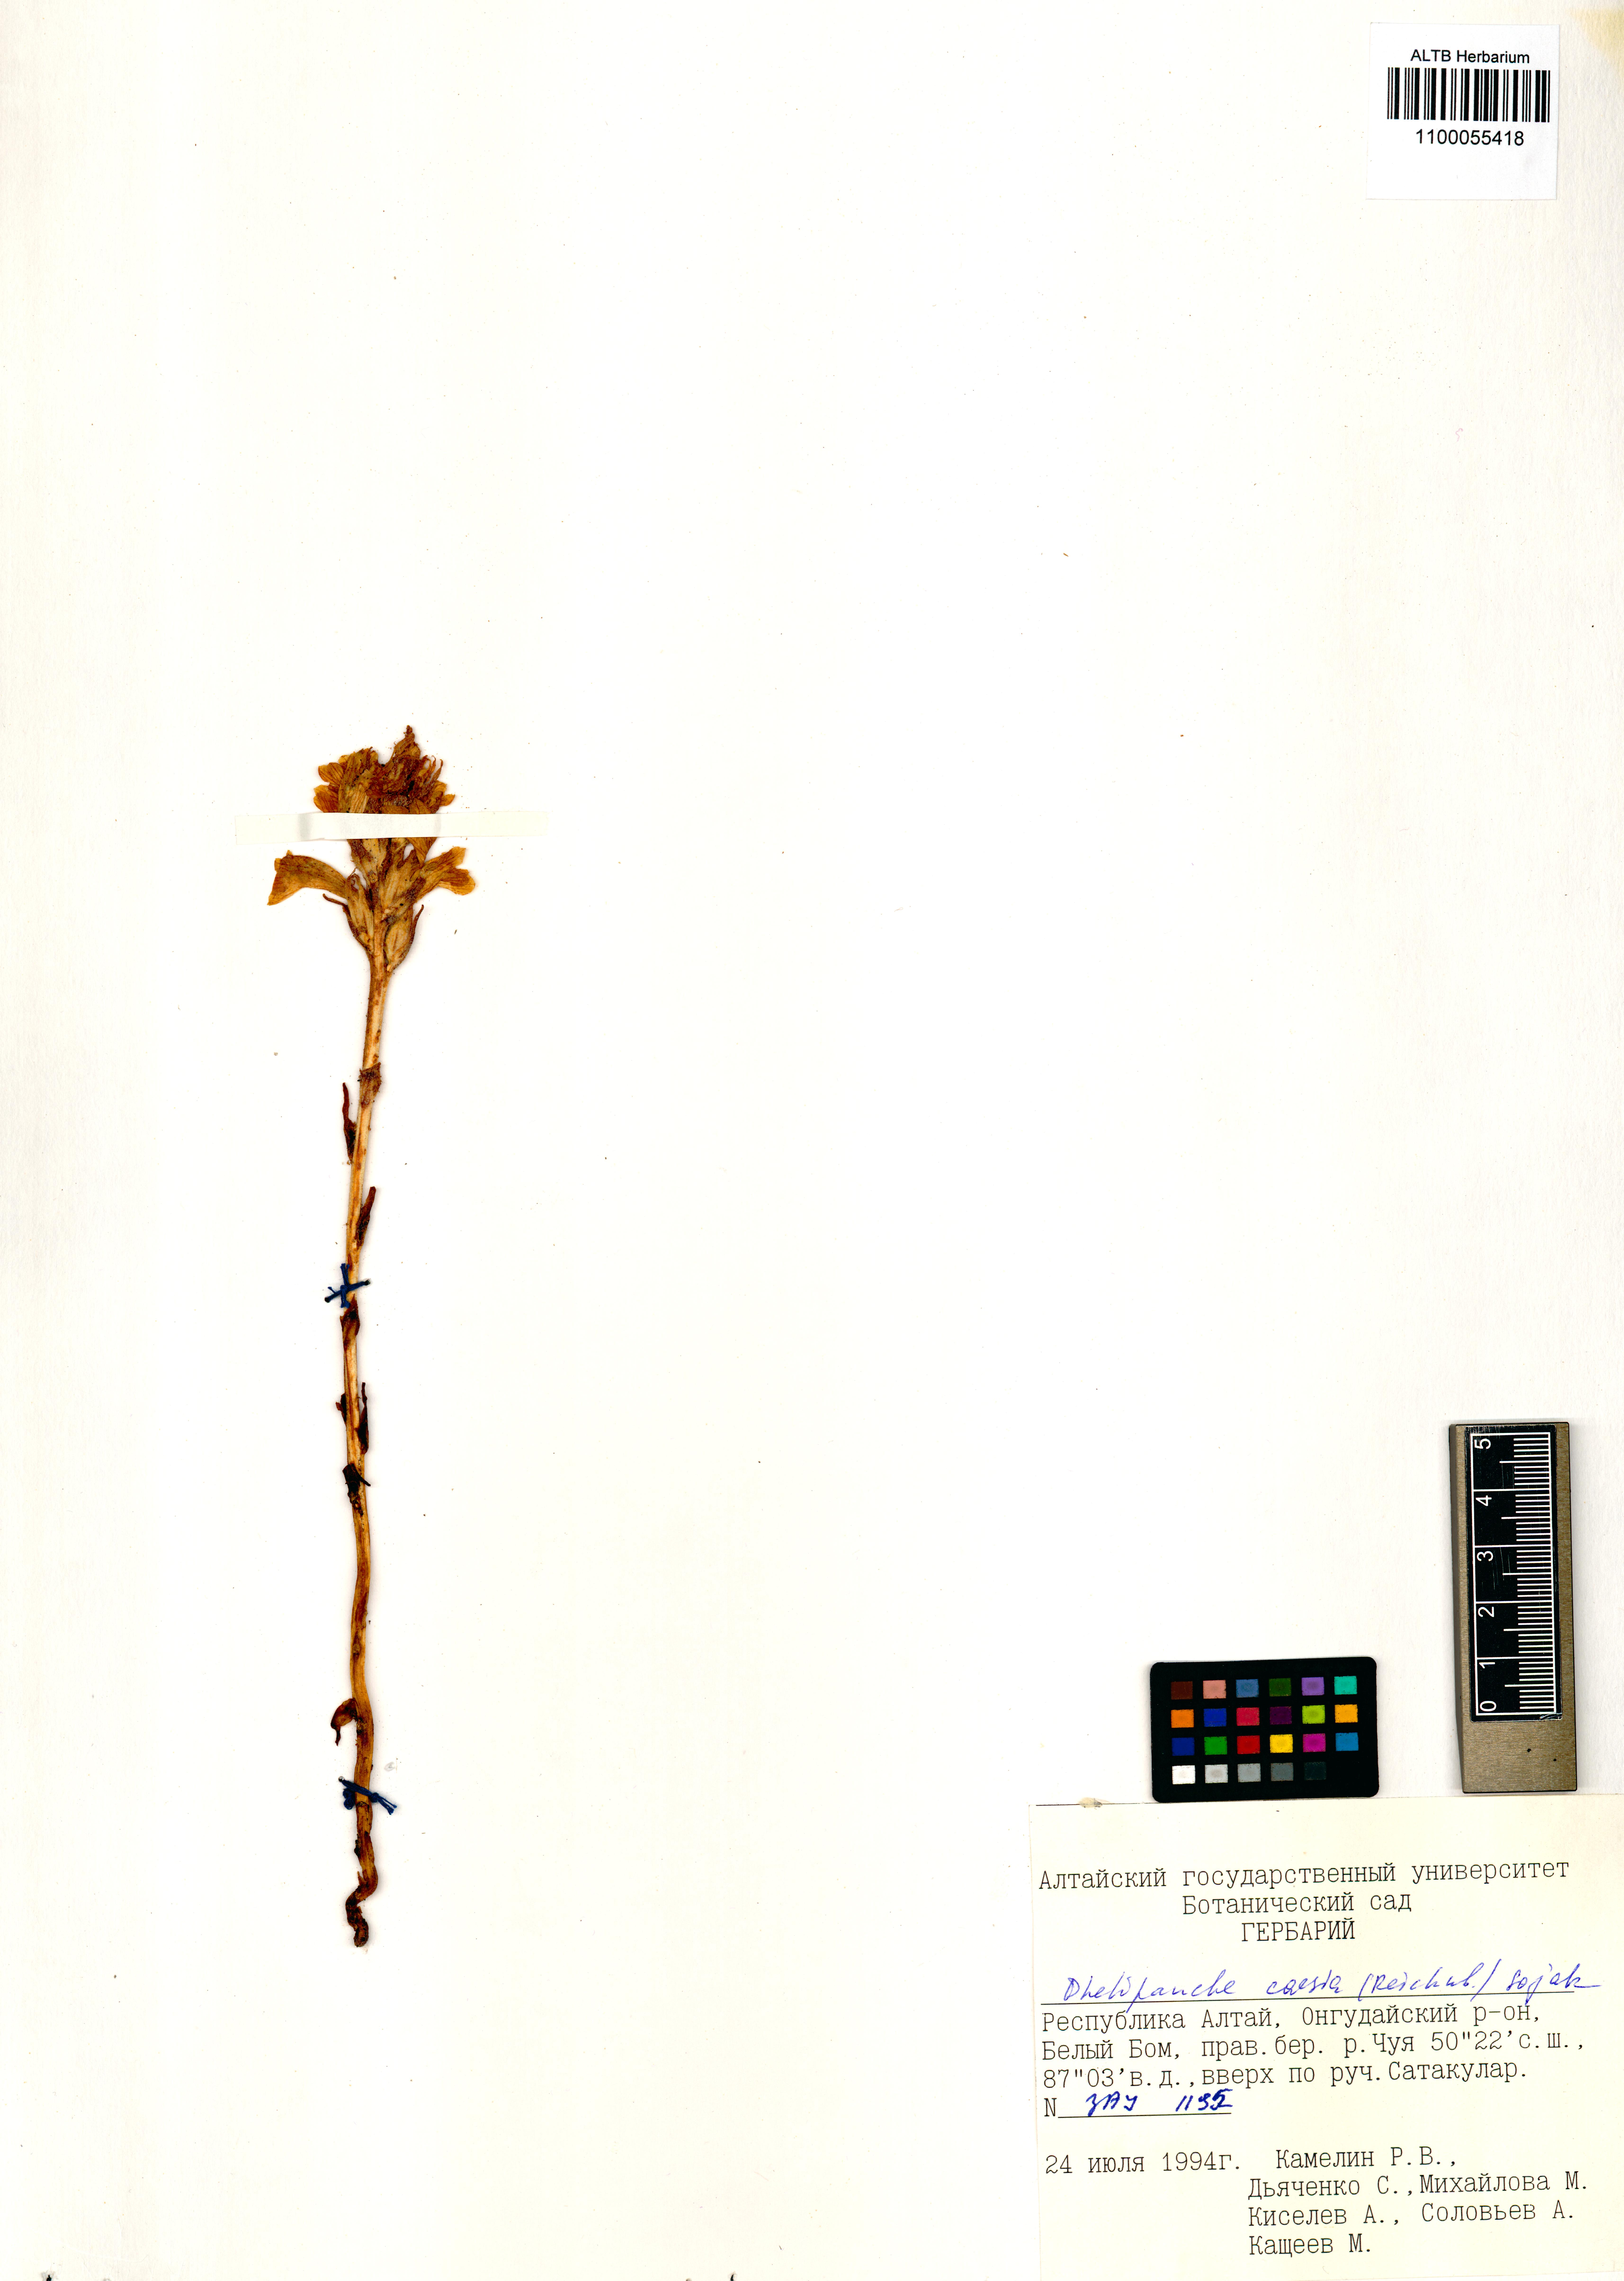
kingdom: Plantae
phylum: Tracheophyta
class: Magnoliopsida
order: Lamiales
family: Orobanchaceae
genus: Phelipanche
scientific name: Phelipanche caesia
